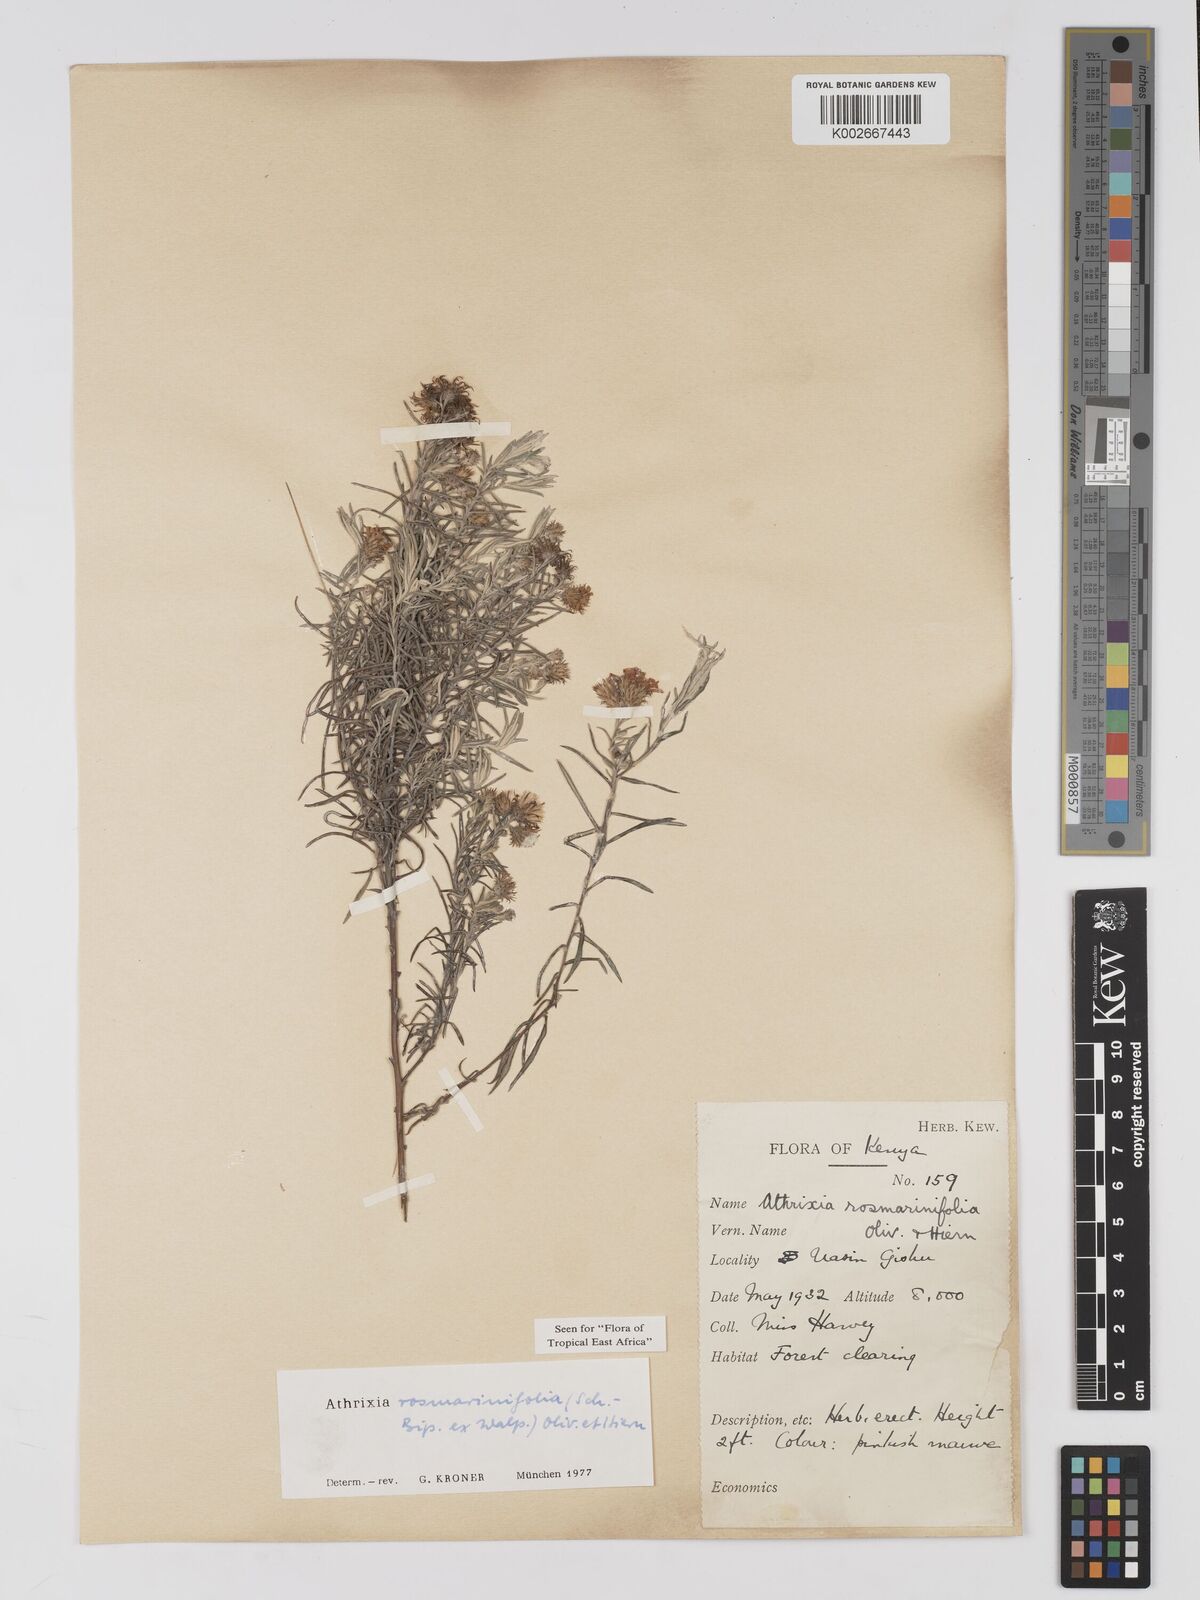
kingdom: Plantae
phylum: Tracheophyta
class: Magnoliopsida
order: Asterales
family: Asteraceae
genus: Athrixia
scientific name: Athrixia rosmarinifolia
